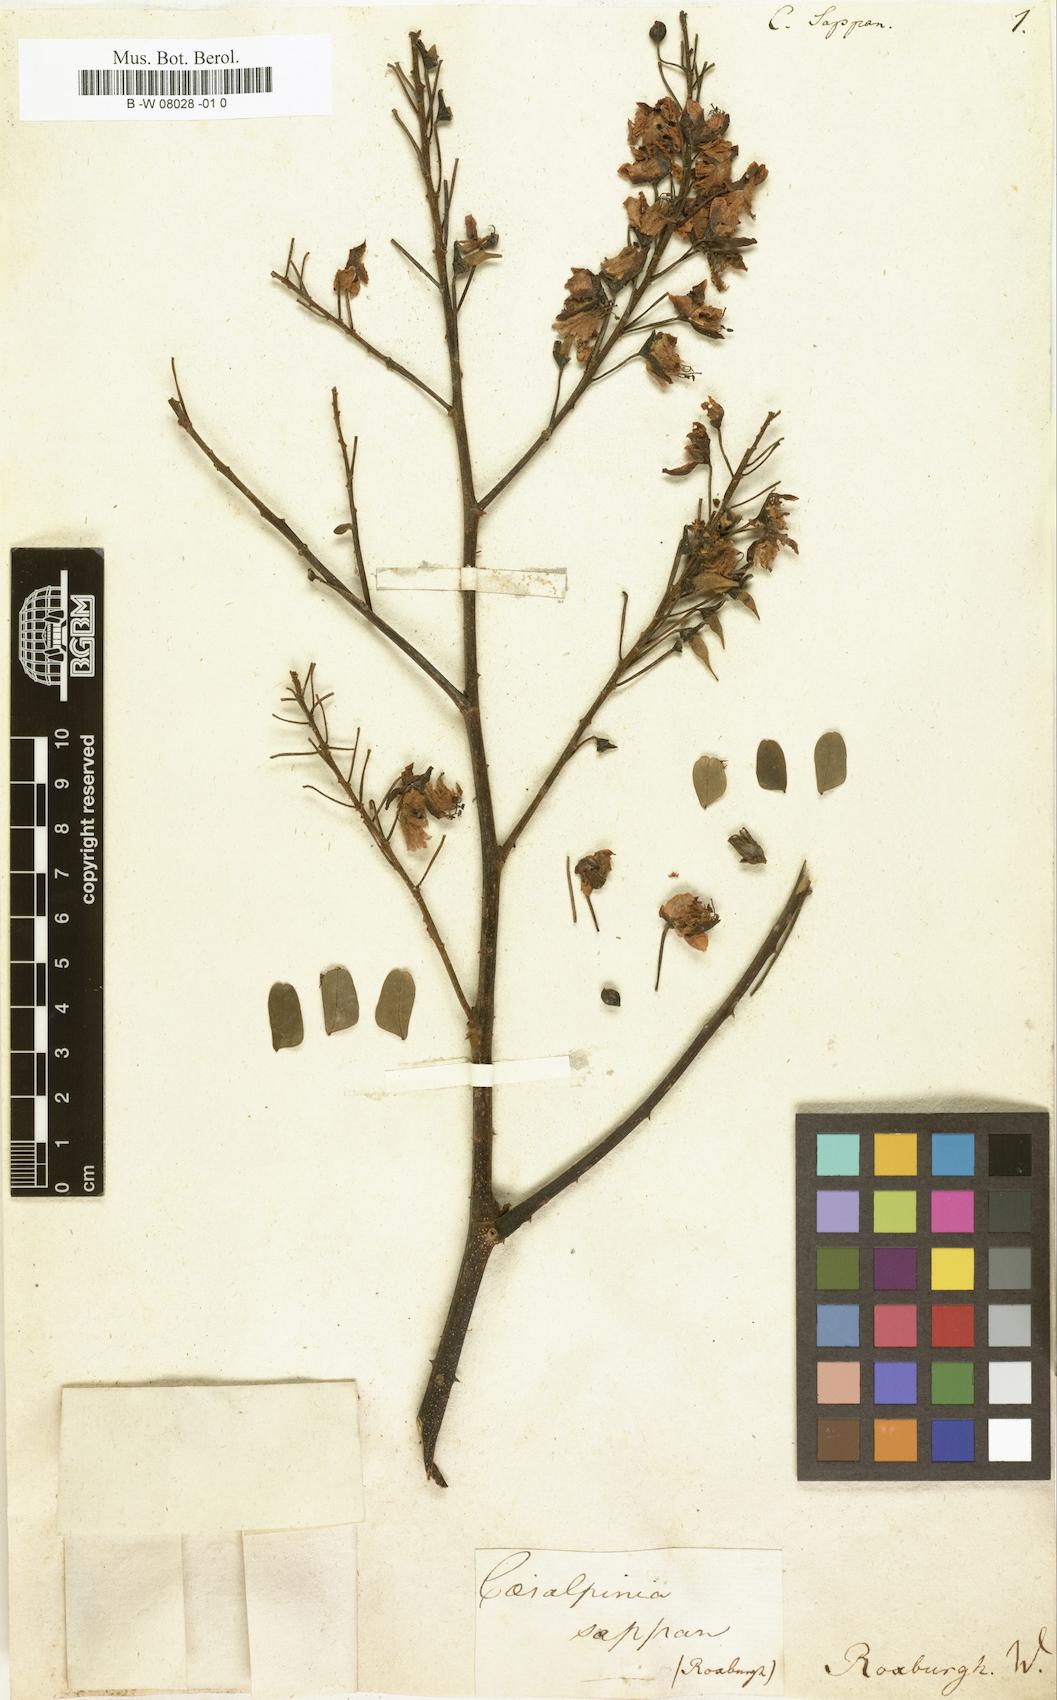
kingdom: Plantae
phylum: Tracheophyta
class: Magnoliopsida
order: Fabales
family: Fabaceae
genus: Biancaea
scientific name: Biancaea sappan
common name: Sappan
